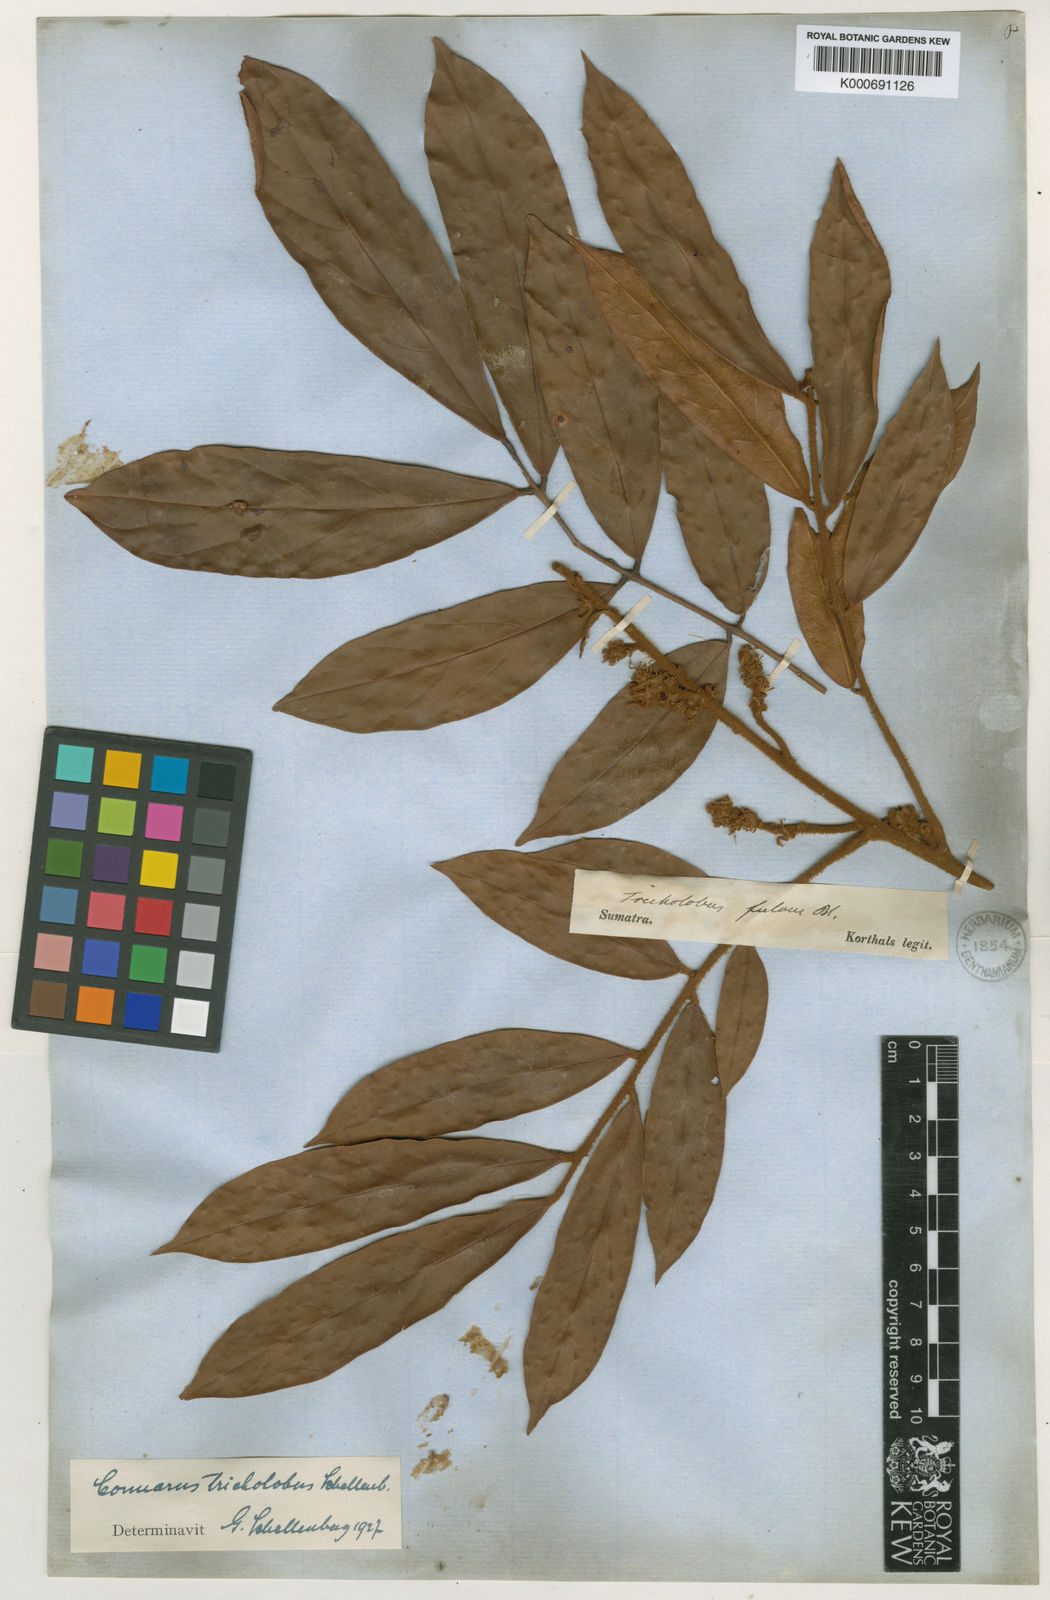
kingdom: Plantae
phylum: Tracheophyta
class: Magnoliopsida
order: Oxalidales
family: Connaraceae
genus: Connarus
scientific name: Connarus villosus
